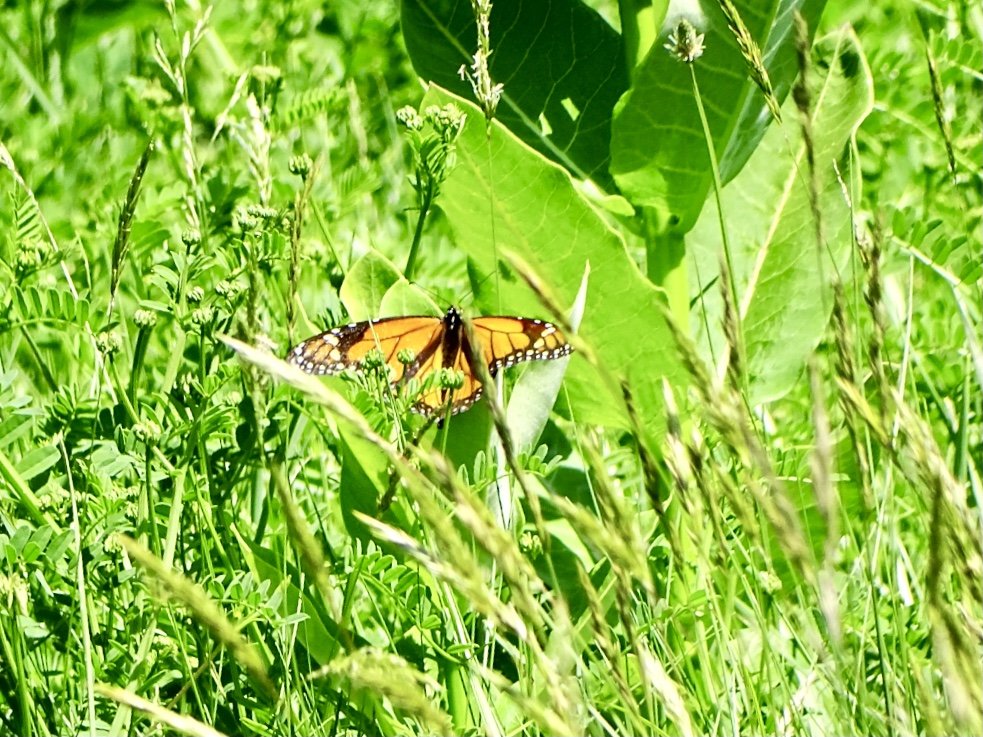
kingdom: Animalia
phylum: Arthropoda
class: Insecta
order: Lepidoptera
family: Nymphalidae
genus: Danaus
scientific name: Danaus plexippus
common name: Monarch
